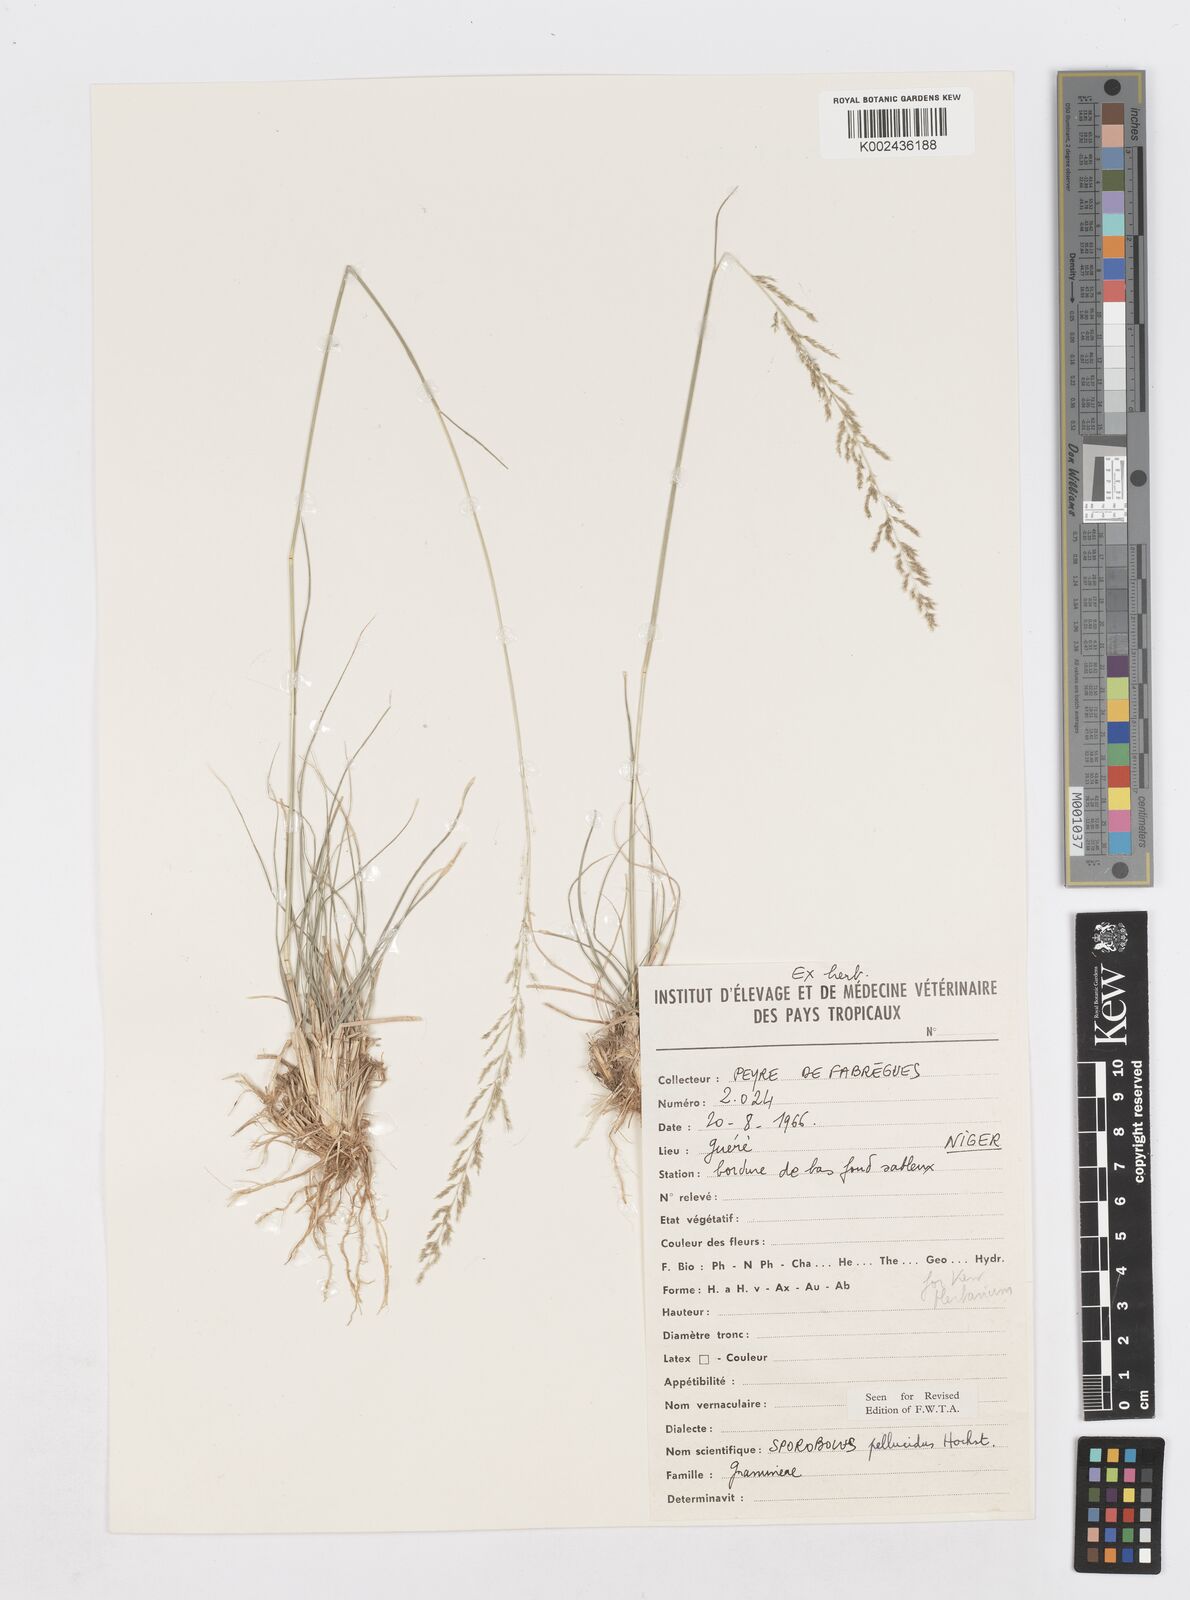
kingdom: Plantae
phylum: Tracheophyta
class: Liliopsida
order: Poales
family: Poaceae
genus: Sporobolus
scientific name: Sporobolus pellucidus
